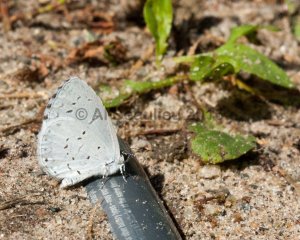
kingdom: Animalia
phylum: Arthropoda
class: Insecta
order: Lepidoptera
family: Lycaenidae
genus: Cyaniris
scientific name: Cyaniris neglecta
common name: Summer Azure
